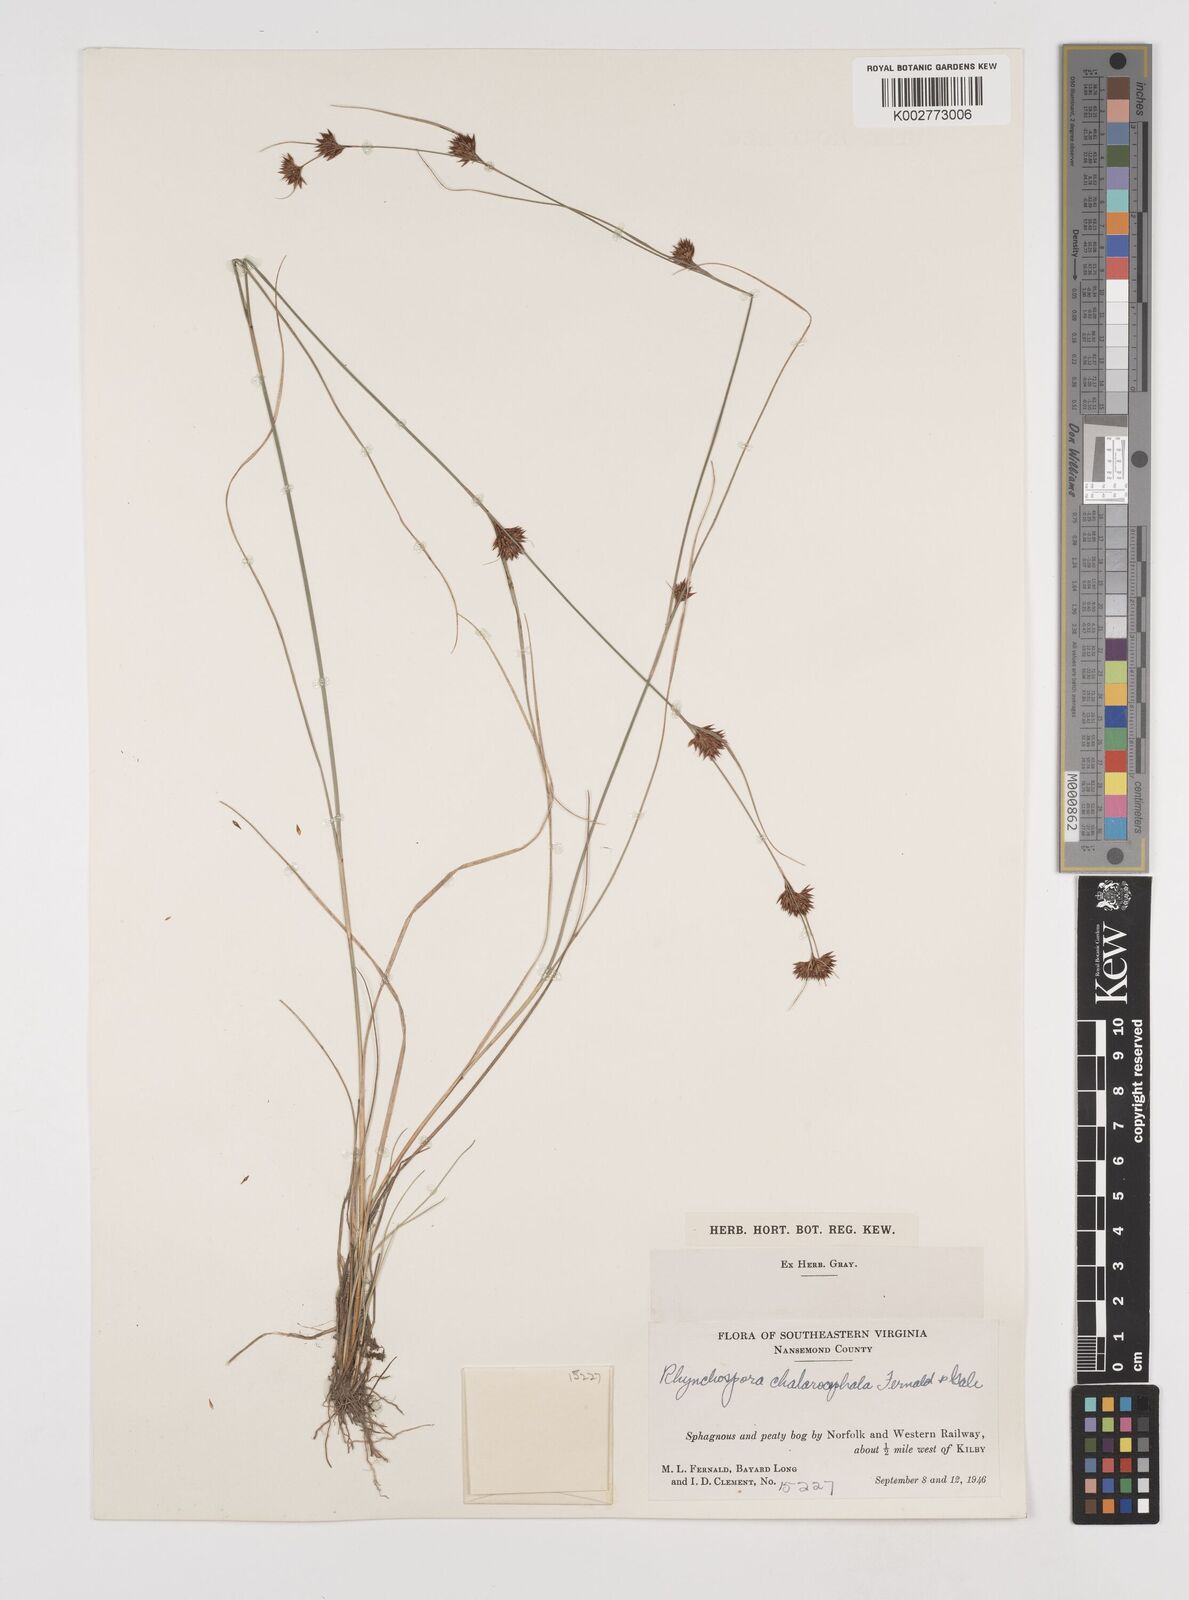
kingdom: Plantae
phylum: Tracheophyta
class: Liliopsida
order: Poales
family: Cyperaceae
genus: Rhynchospora
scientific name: Rhynchospora chalarocephala
